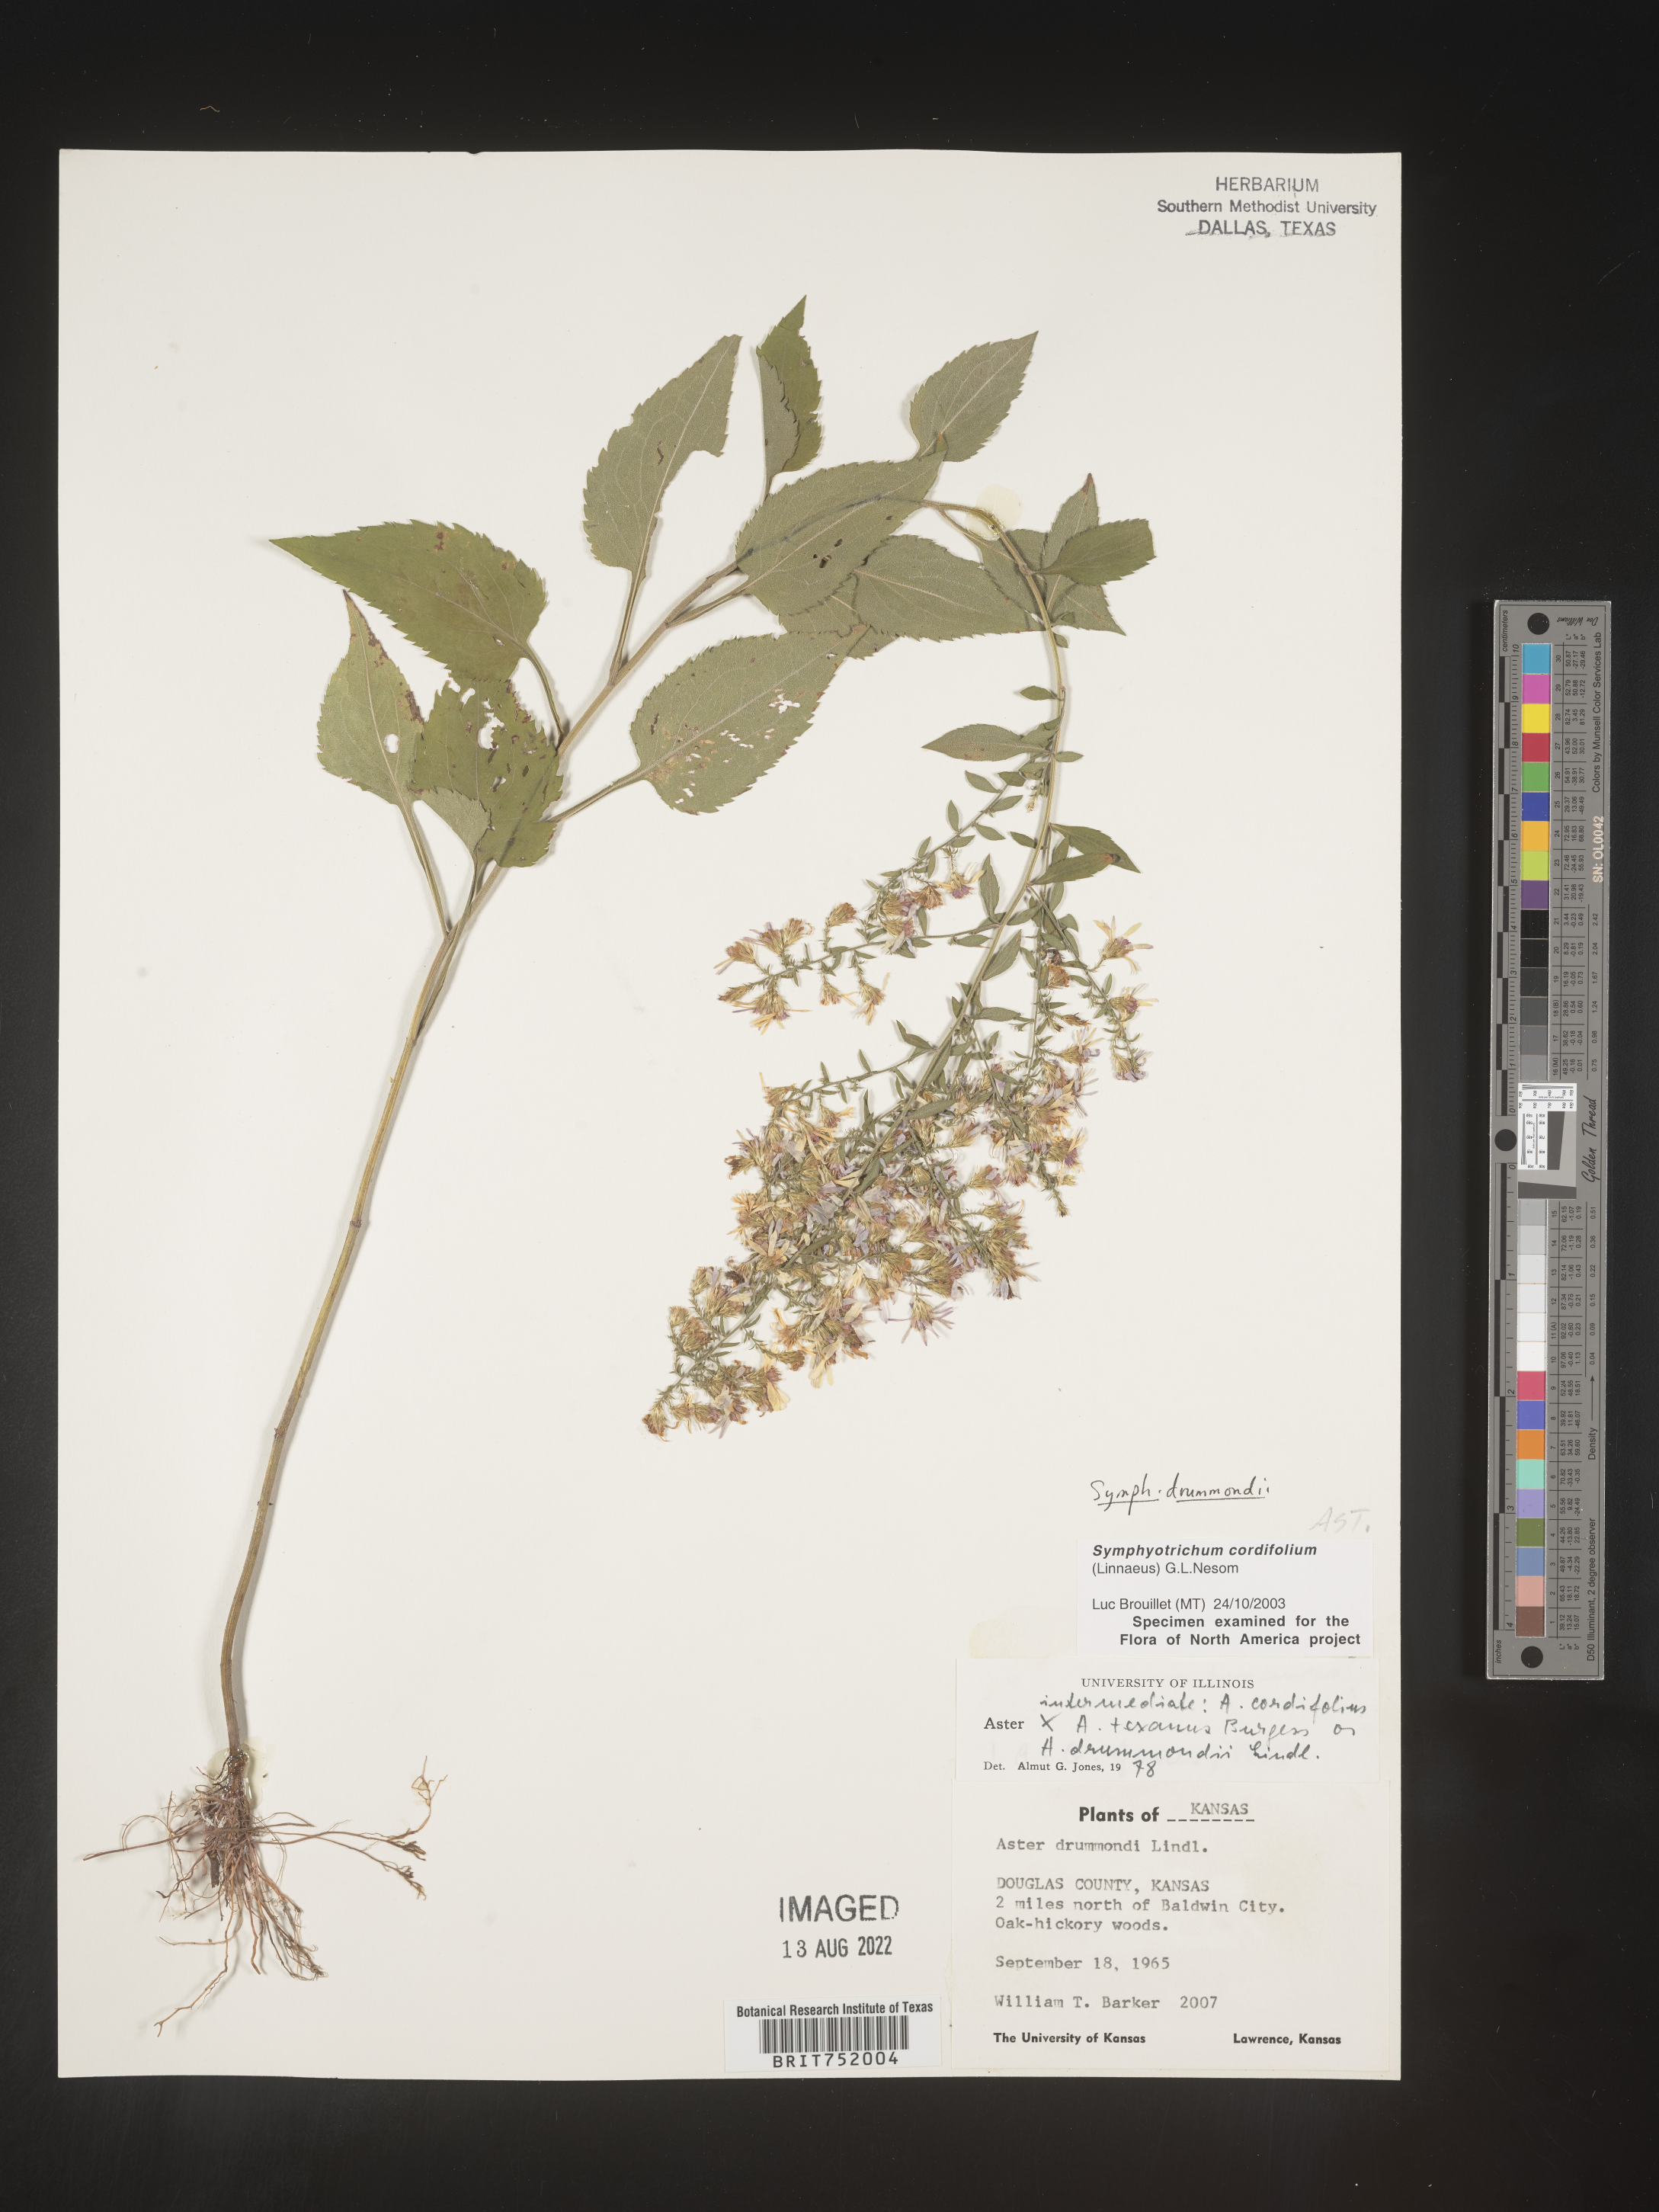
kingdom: Plantae
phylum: Tracheophyta
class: Magnoliopsida
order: Asterales
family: Asteraceae
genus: Symphyotrichum
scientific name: Symphyotrichum drummondii
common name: Drummond's aster
